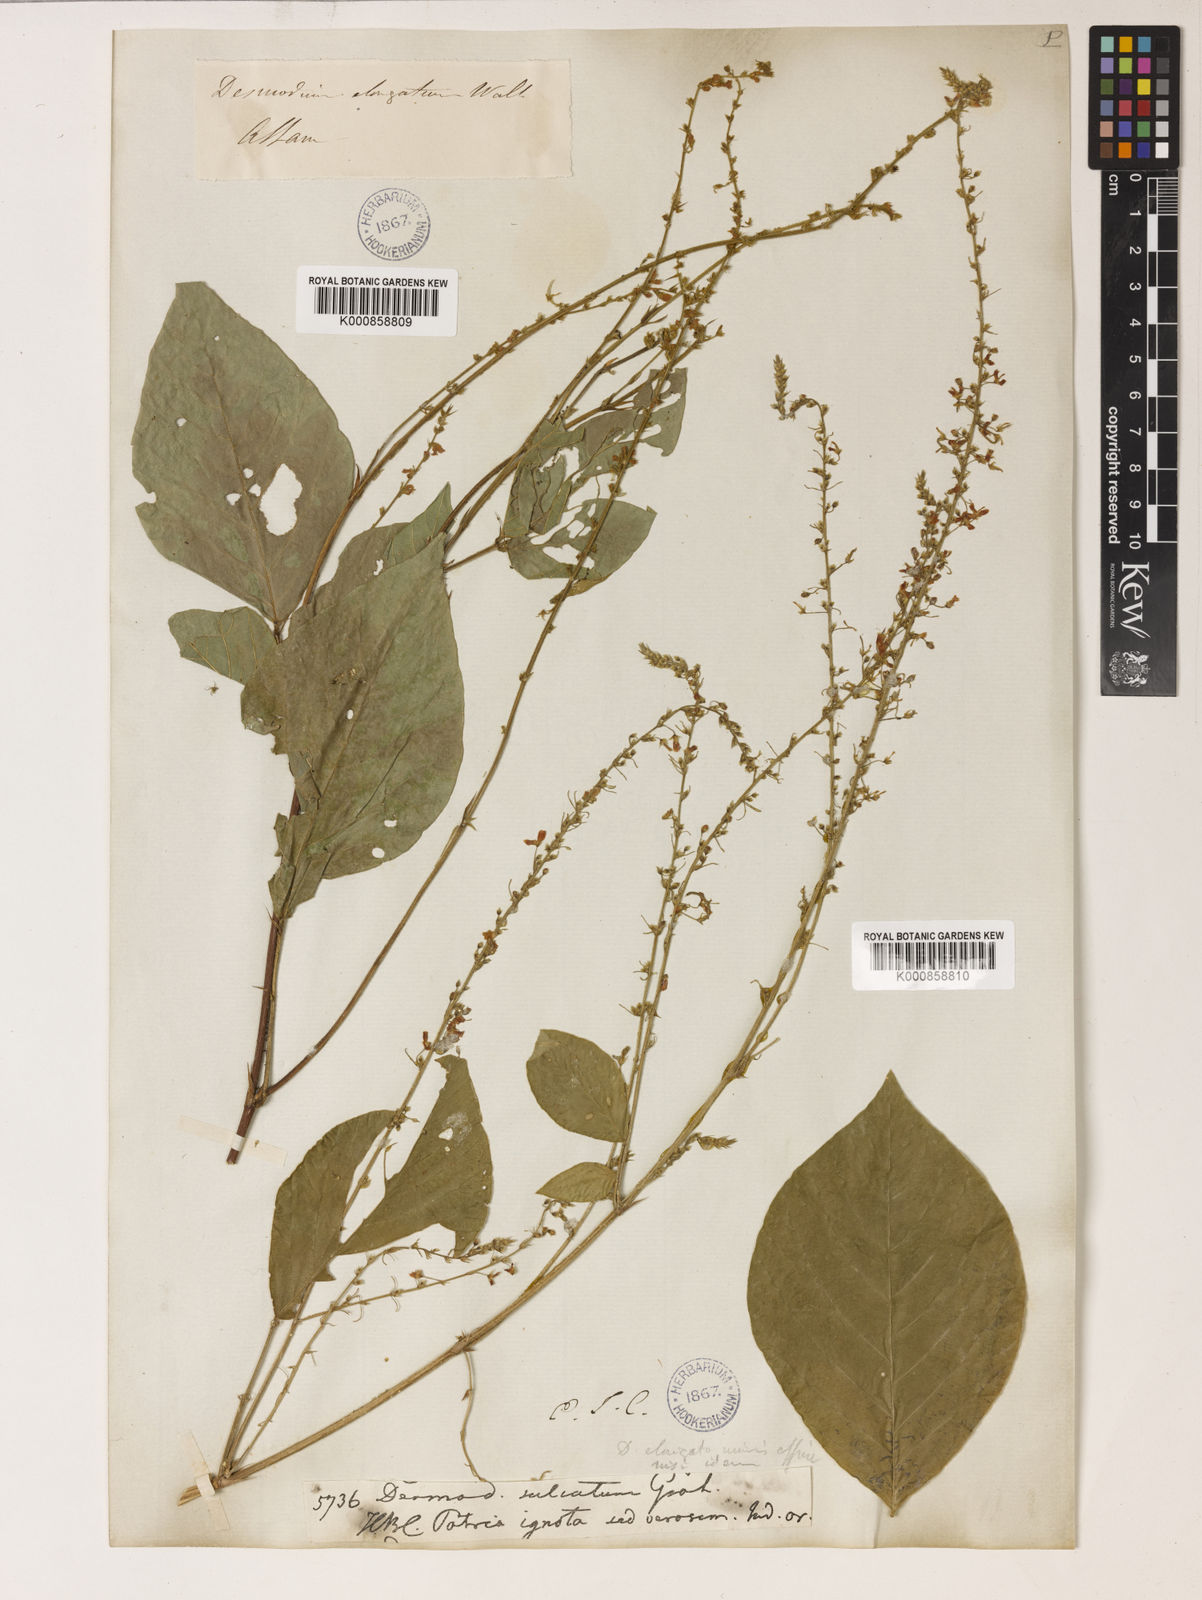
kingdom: Plantae
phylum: Tracheophyta
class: Magnoliopsida
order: Fabales
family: Fabaceae
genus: Sohmaea
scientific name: Sohmaea laxiflora
